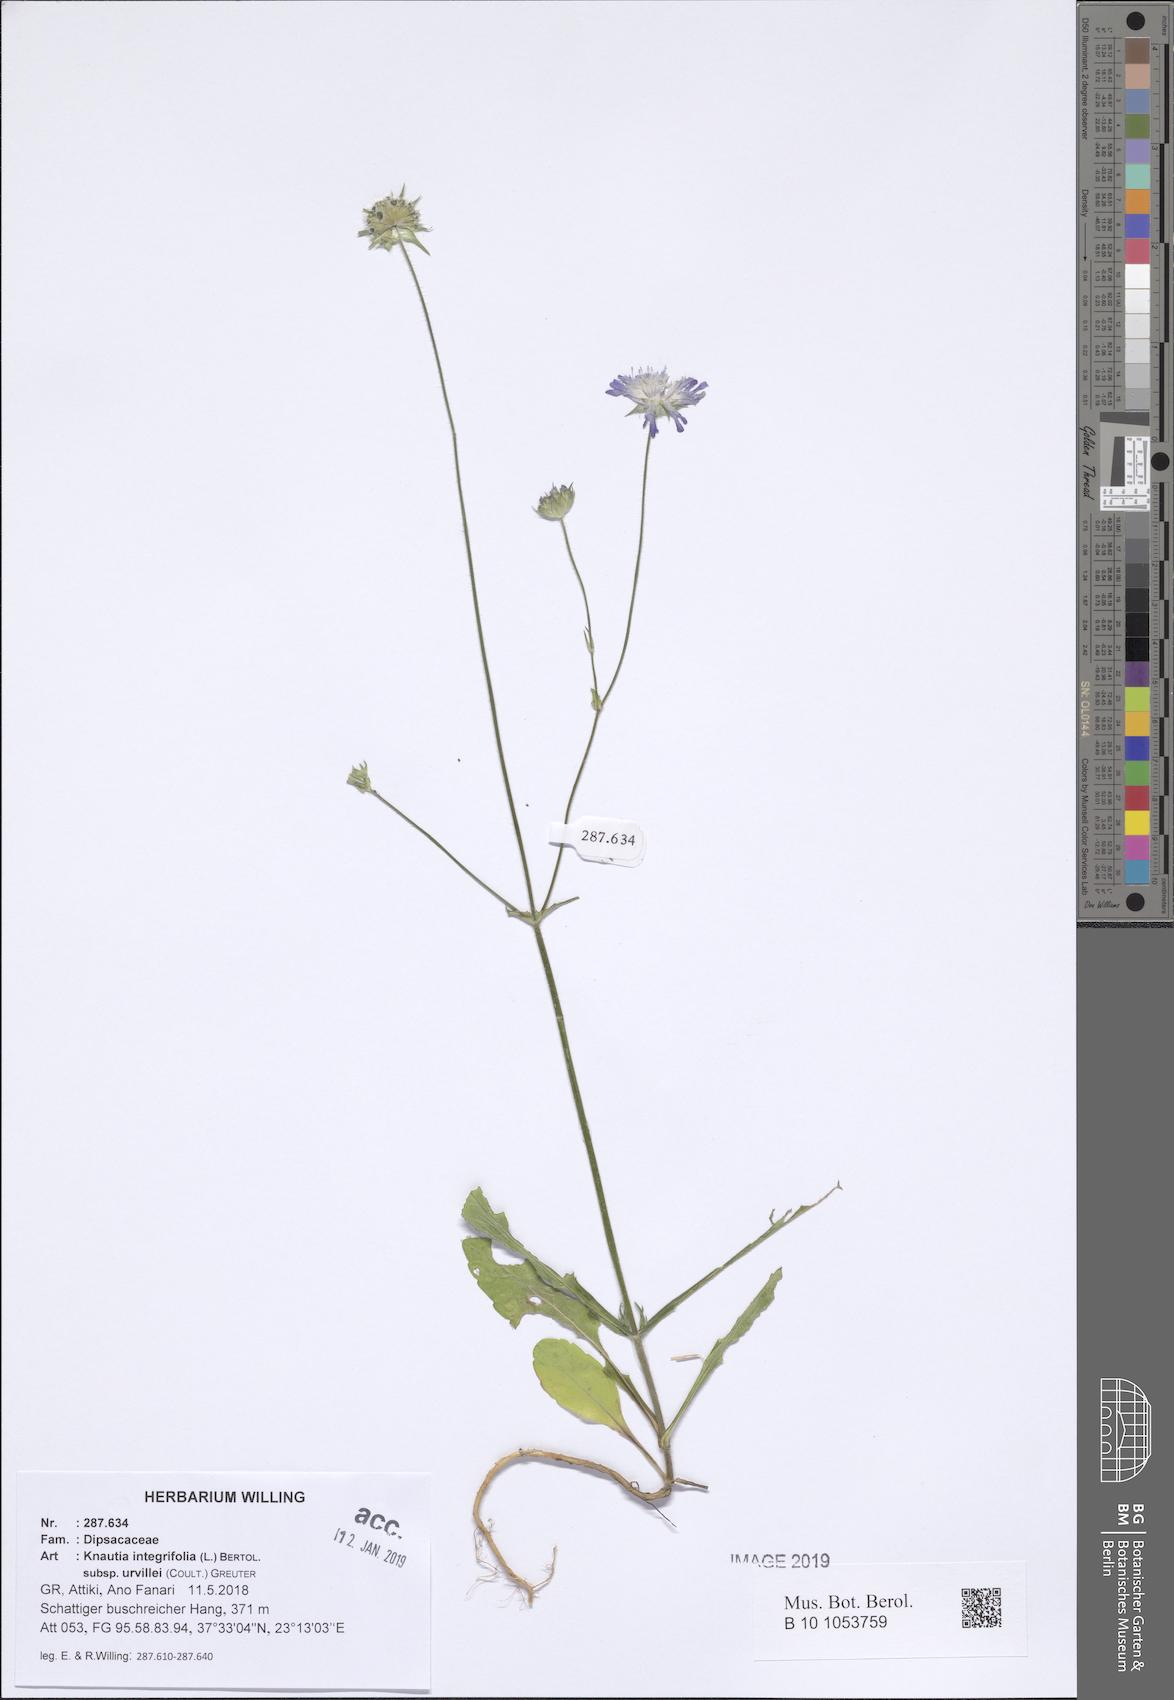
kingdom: Plantae
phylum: Tracheophyta
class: Magnoliopsida
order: Dipsacales
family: Caprifoliaceae
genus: Knautia
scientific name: Knautia integrifolia
